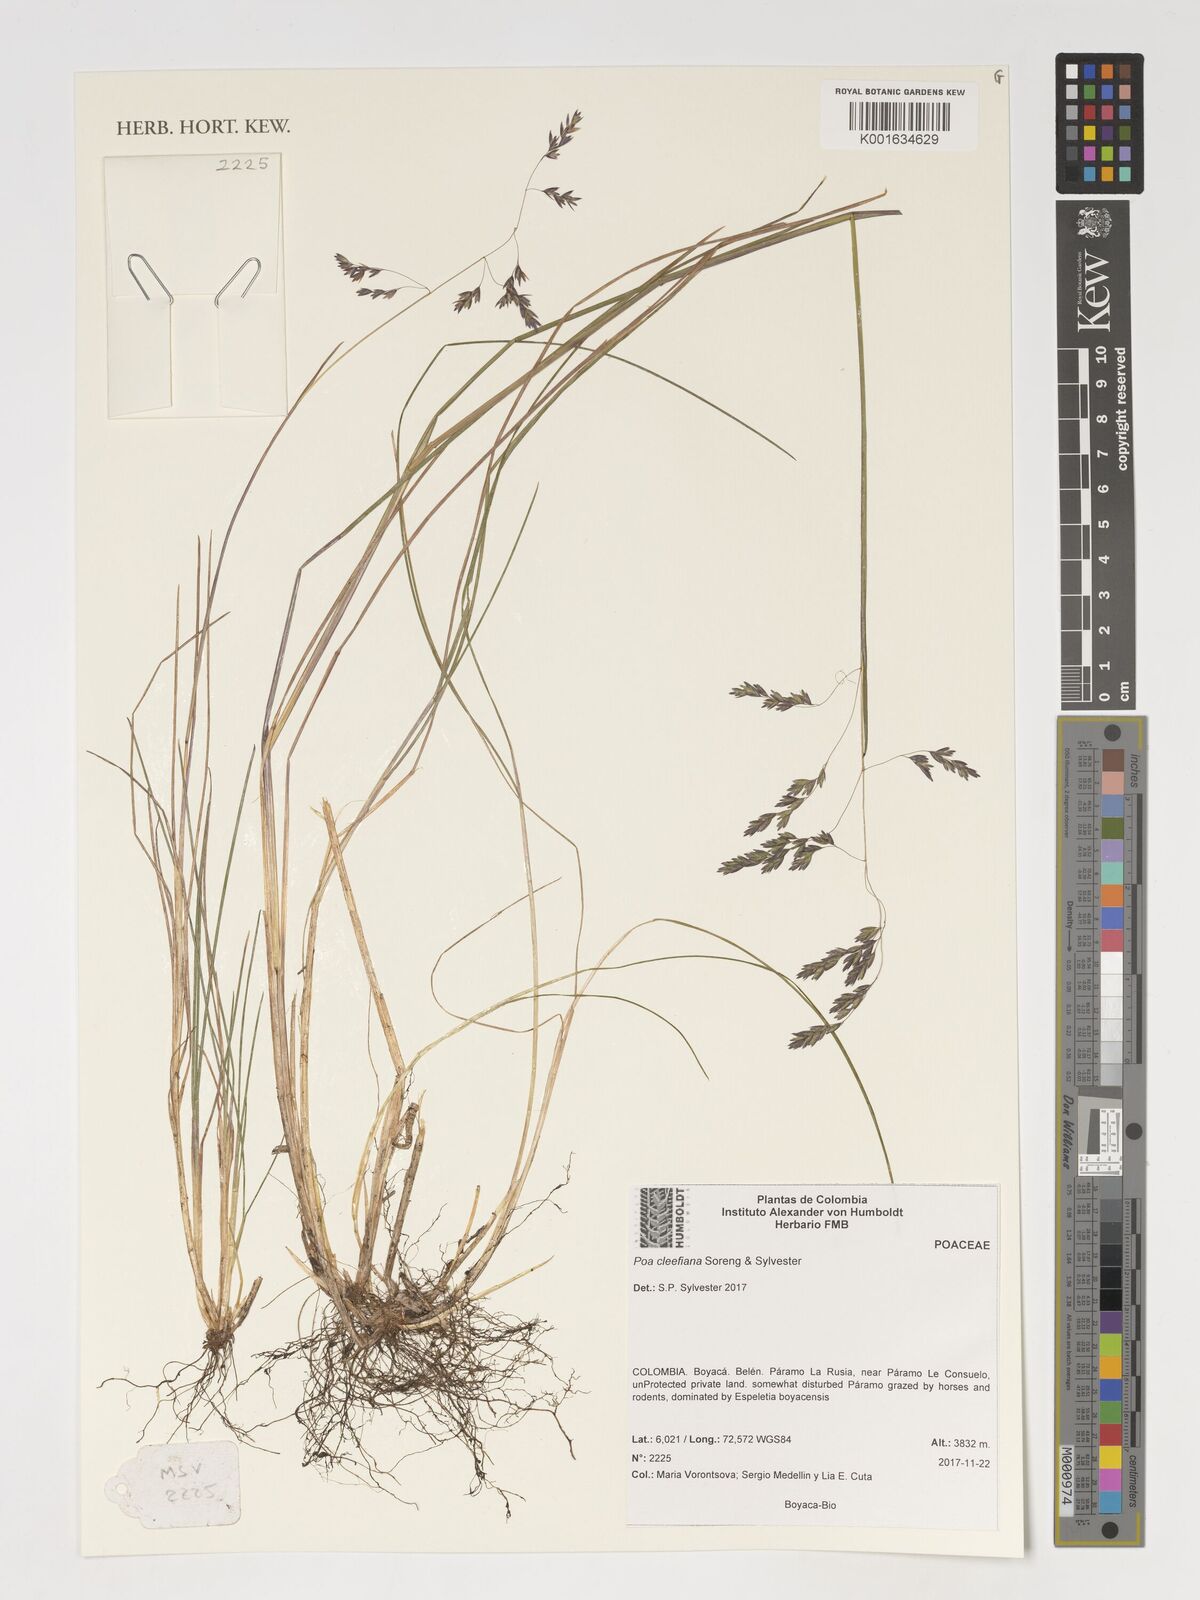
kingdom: Plantae
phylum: Tracheophyta
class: Liliopsida
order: Poales
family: Poaceae
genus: Poa
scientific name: Poa
